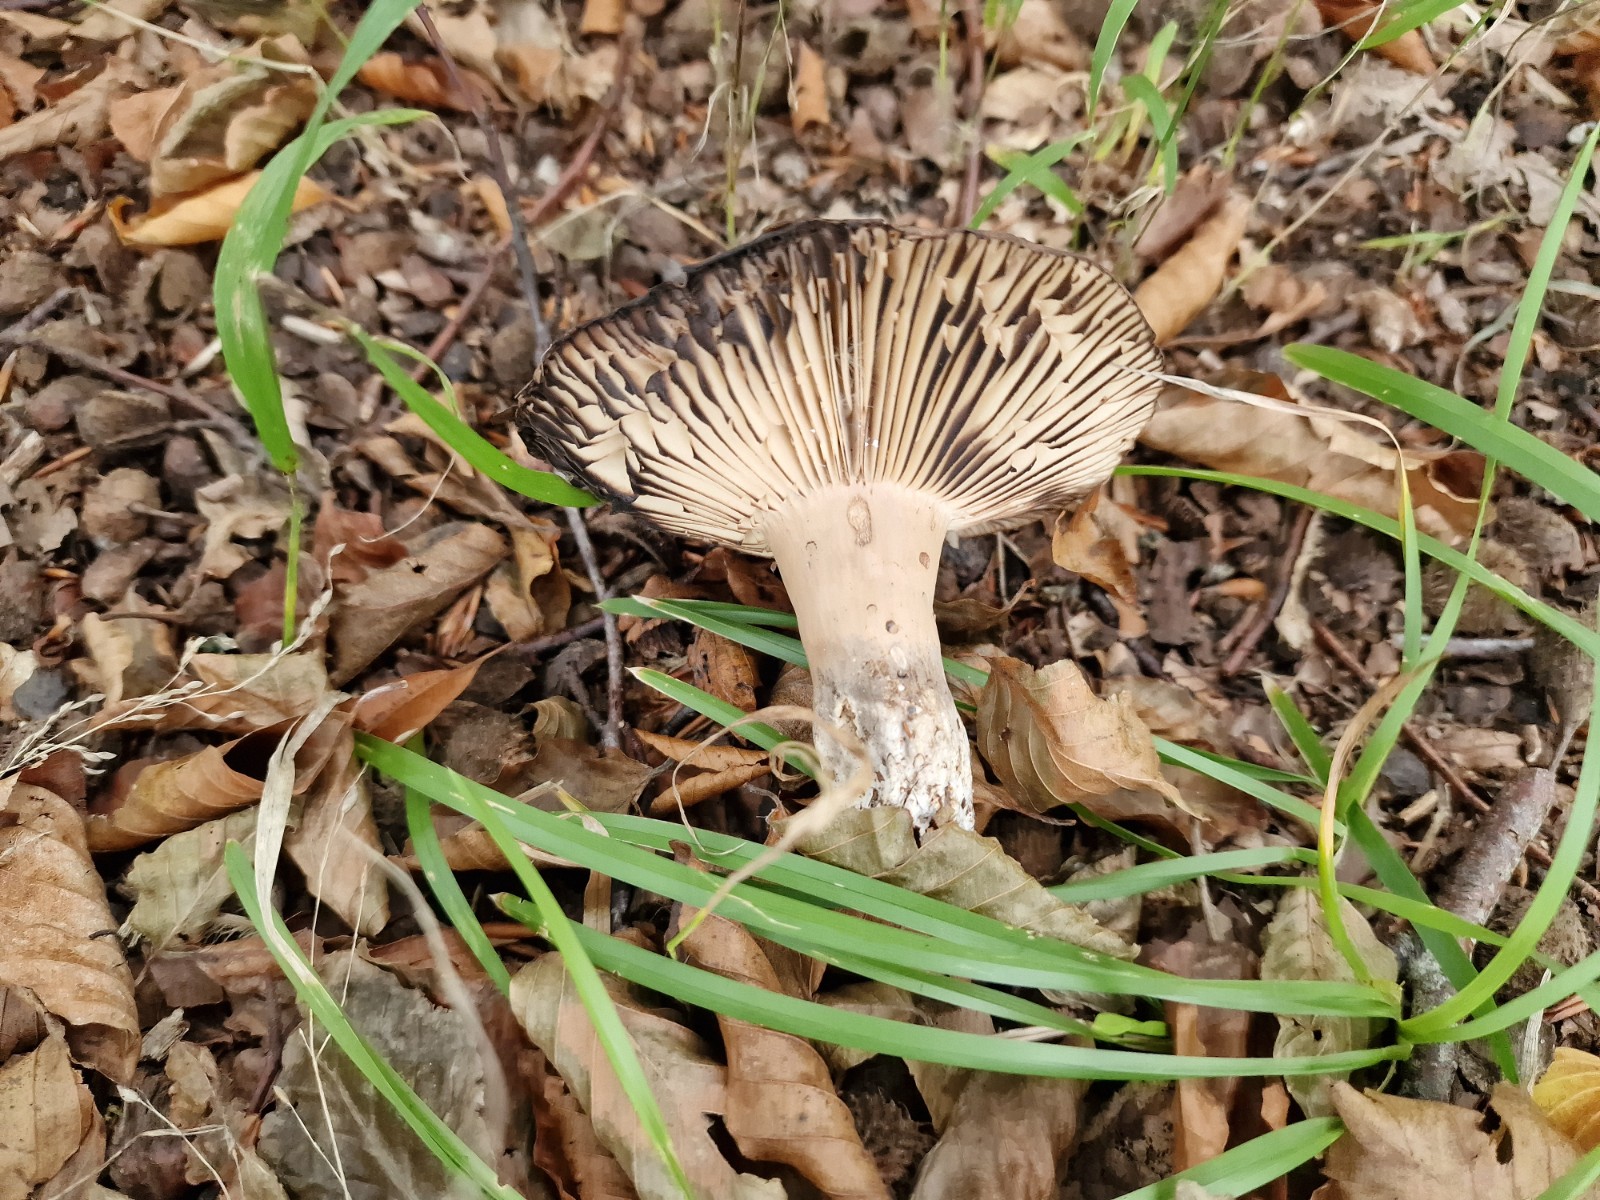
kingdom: Fungi
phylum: Basidiomycota
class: Agaricomycetes
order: Russulales
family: Russulaceae
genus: Russula
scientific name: Russula adusta
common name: sværtende skørhat
